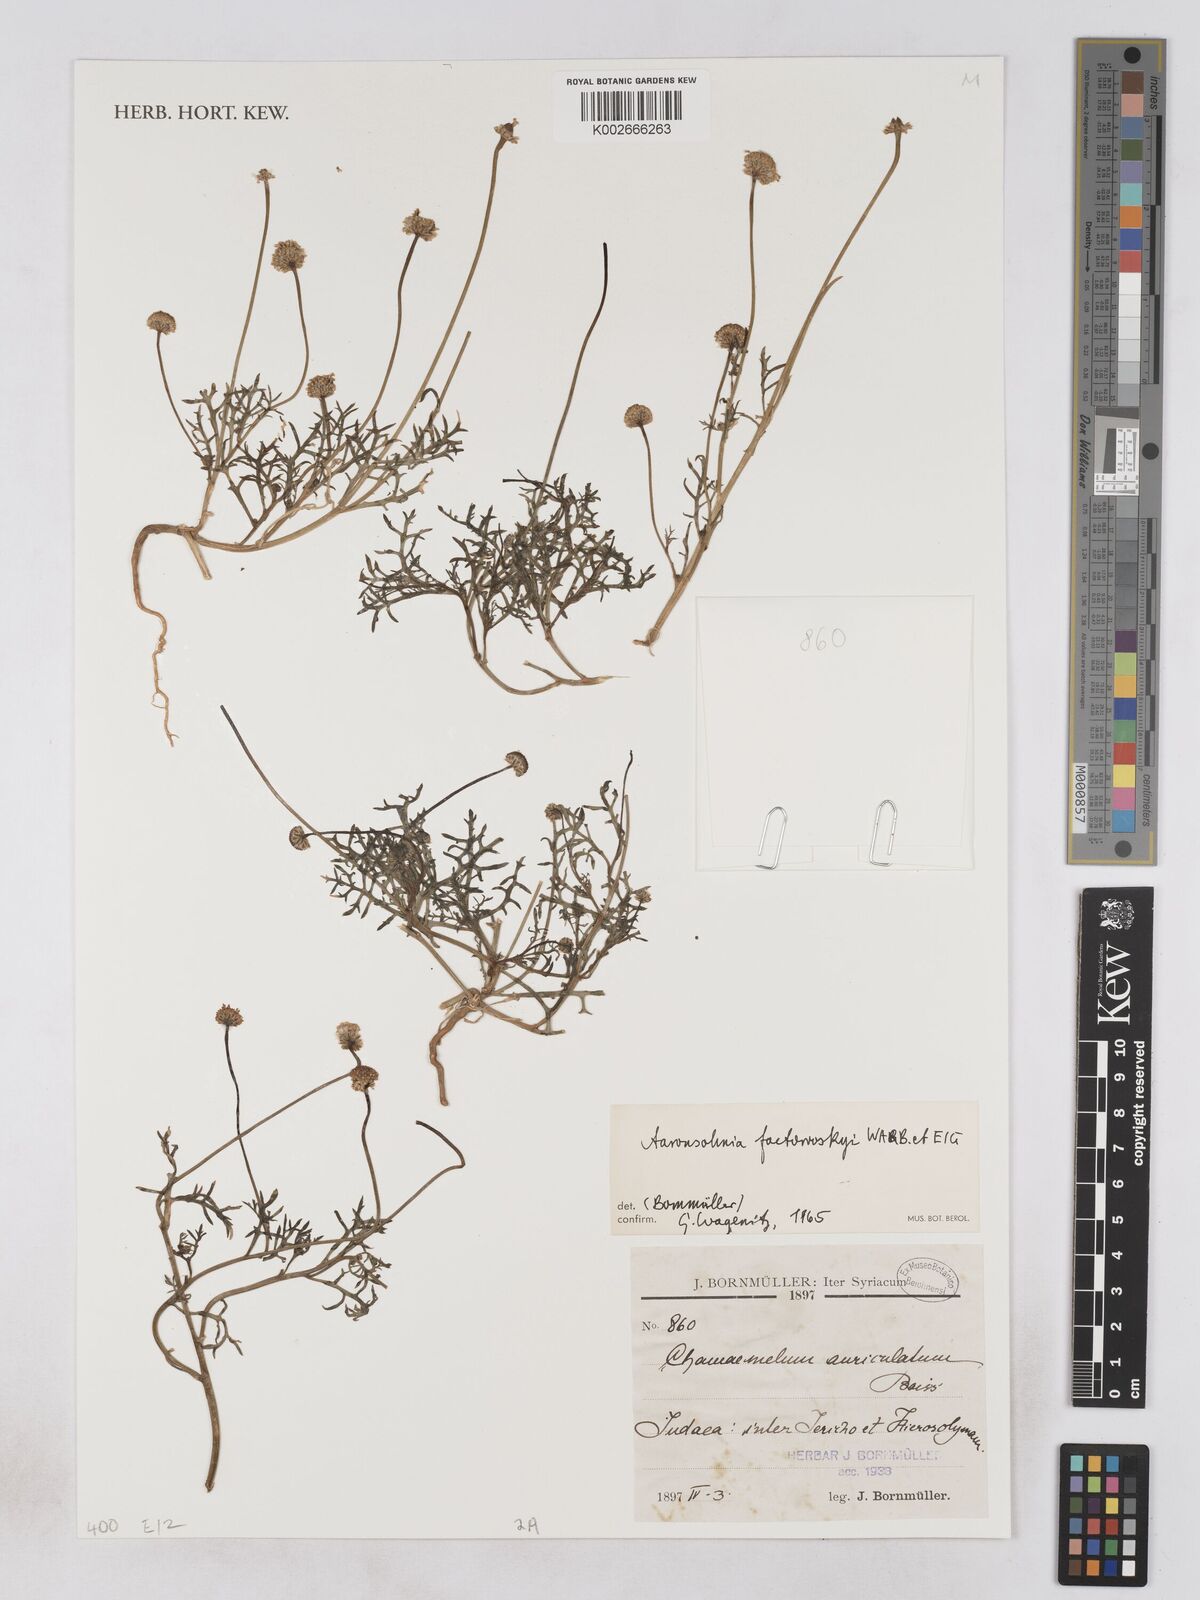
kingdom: Plantae
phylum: Tracheophyta
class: Magnoliopsida
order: Asterales
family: Asteraceae
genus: Otoglyphis
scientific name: Otoglyphis factorovskyi
